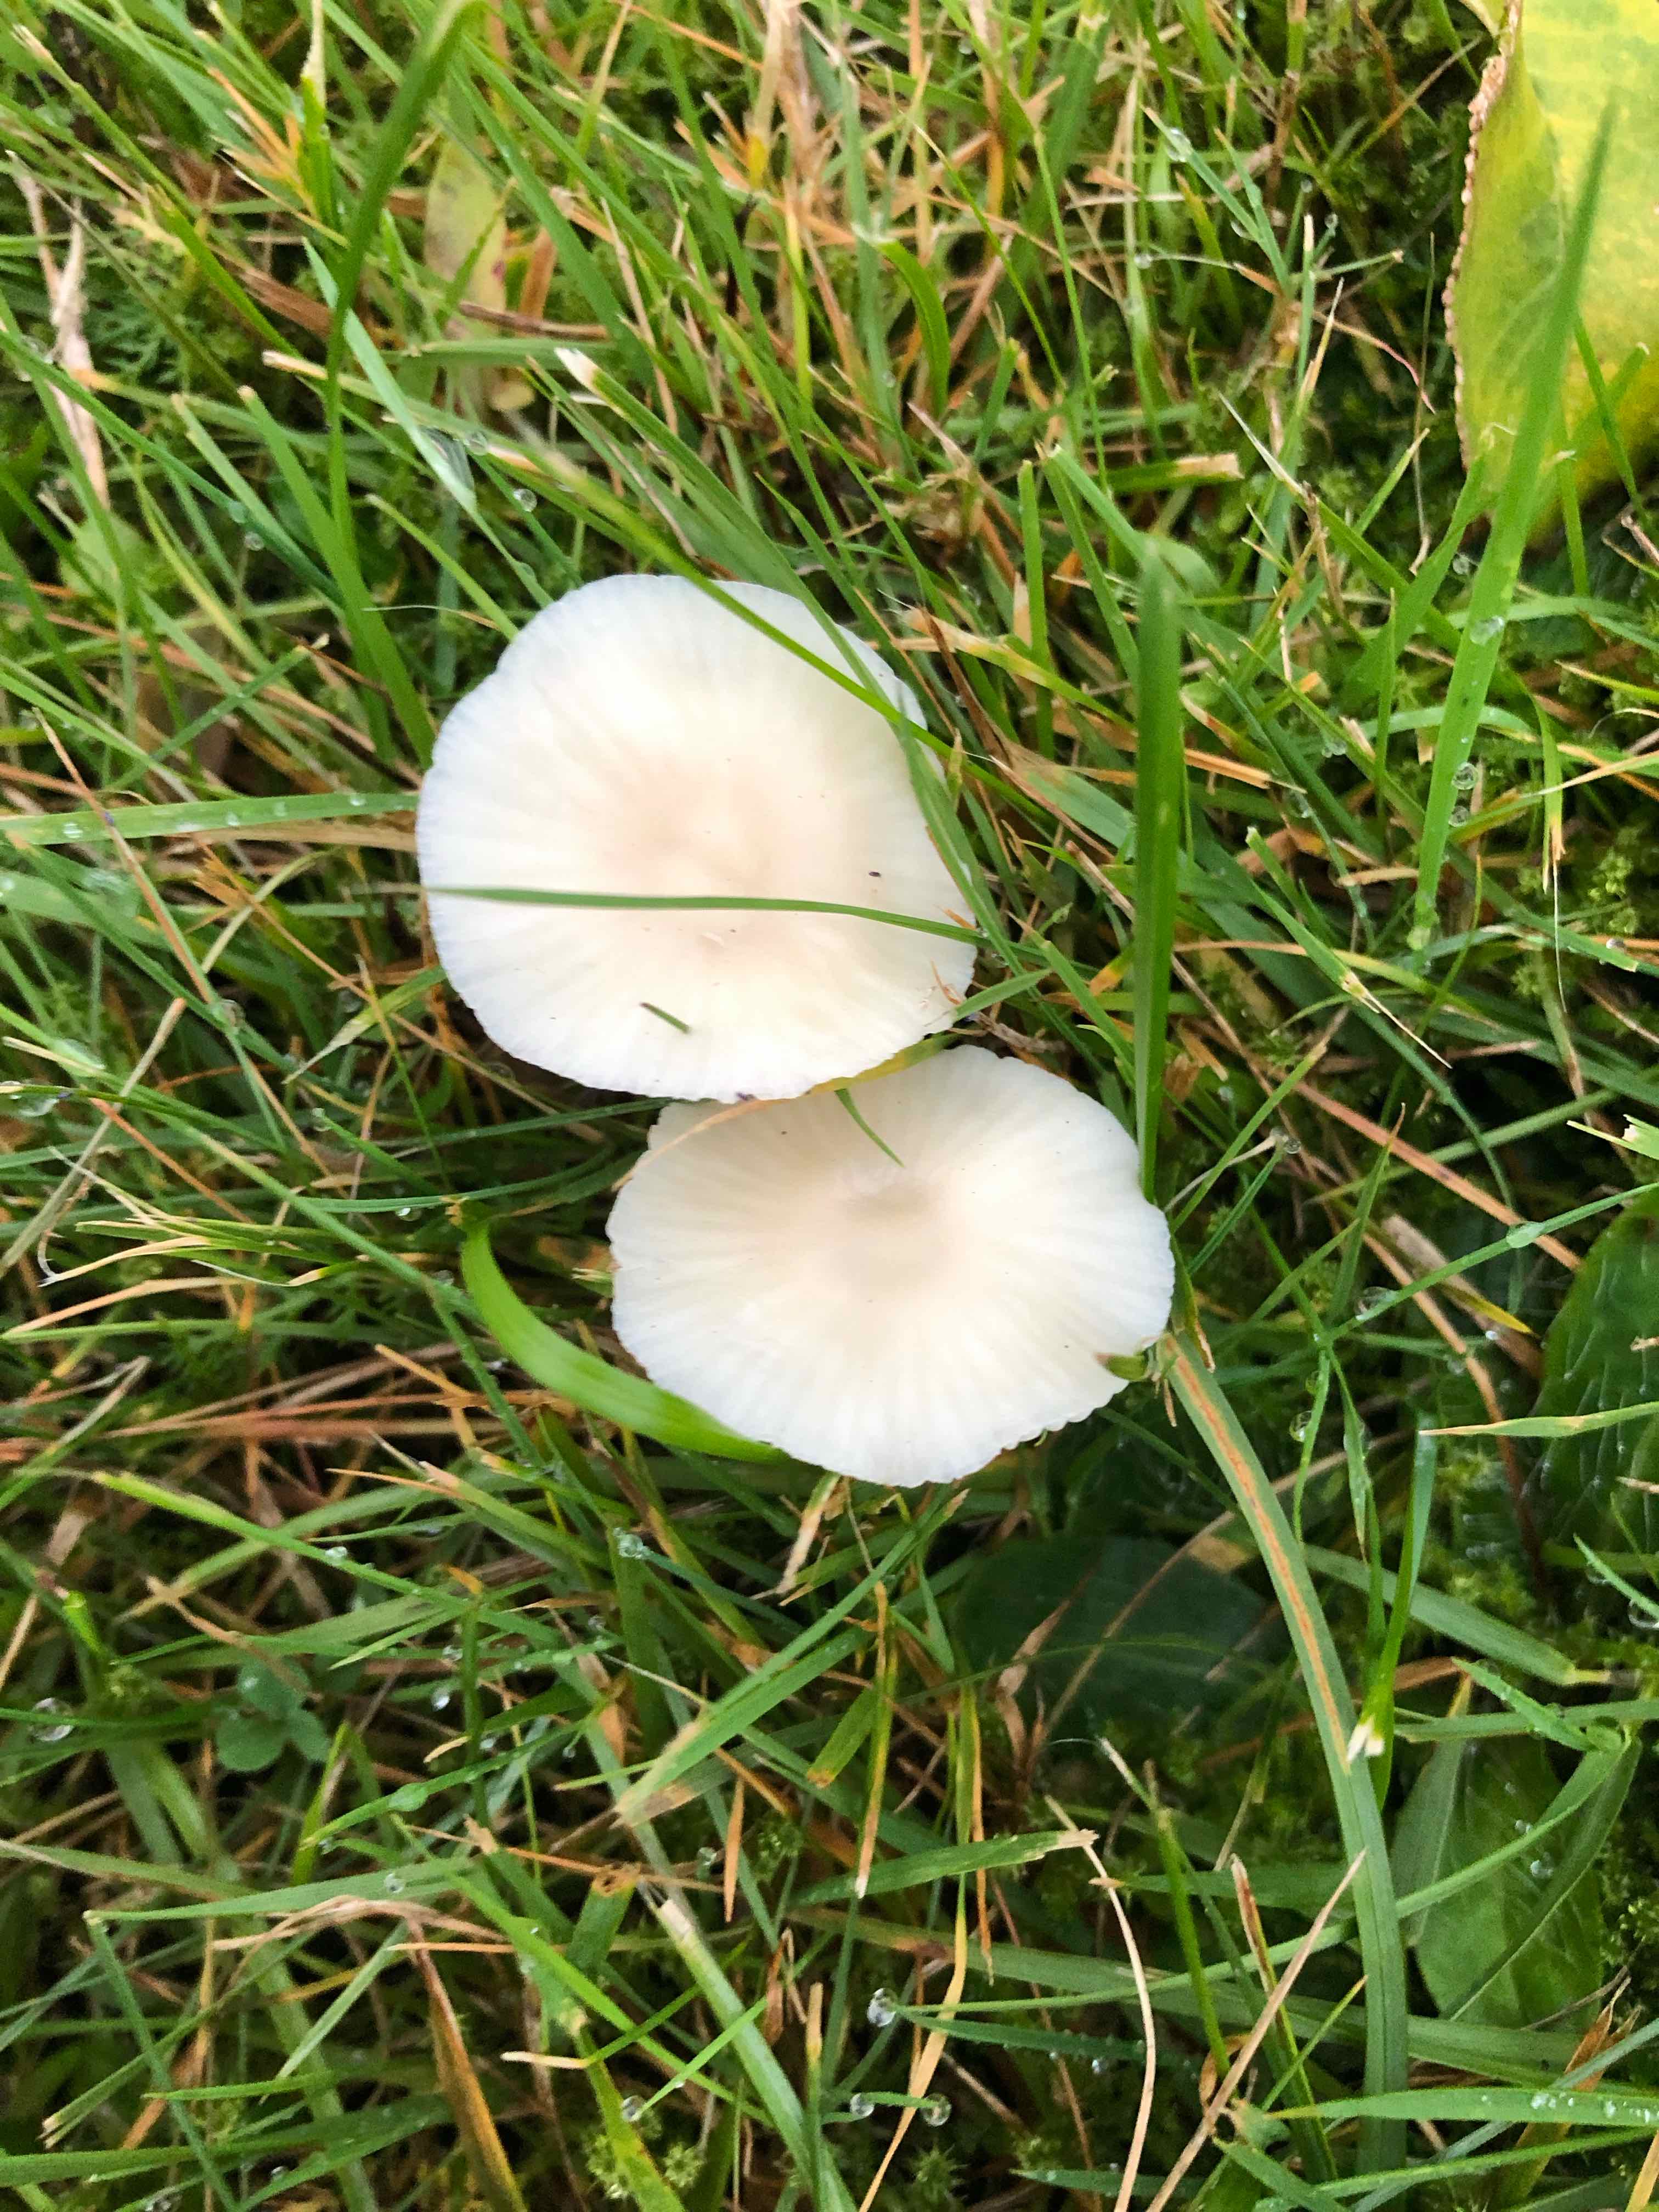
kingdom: Fungi
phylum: Basidiomycota
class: Agaricomycetes
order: Agaricales
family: Hygrophoraceae
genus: Cuphophyllus
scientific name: Cuphophyllus virgineus
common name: snehvid vokshat
